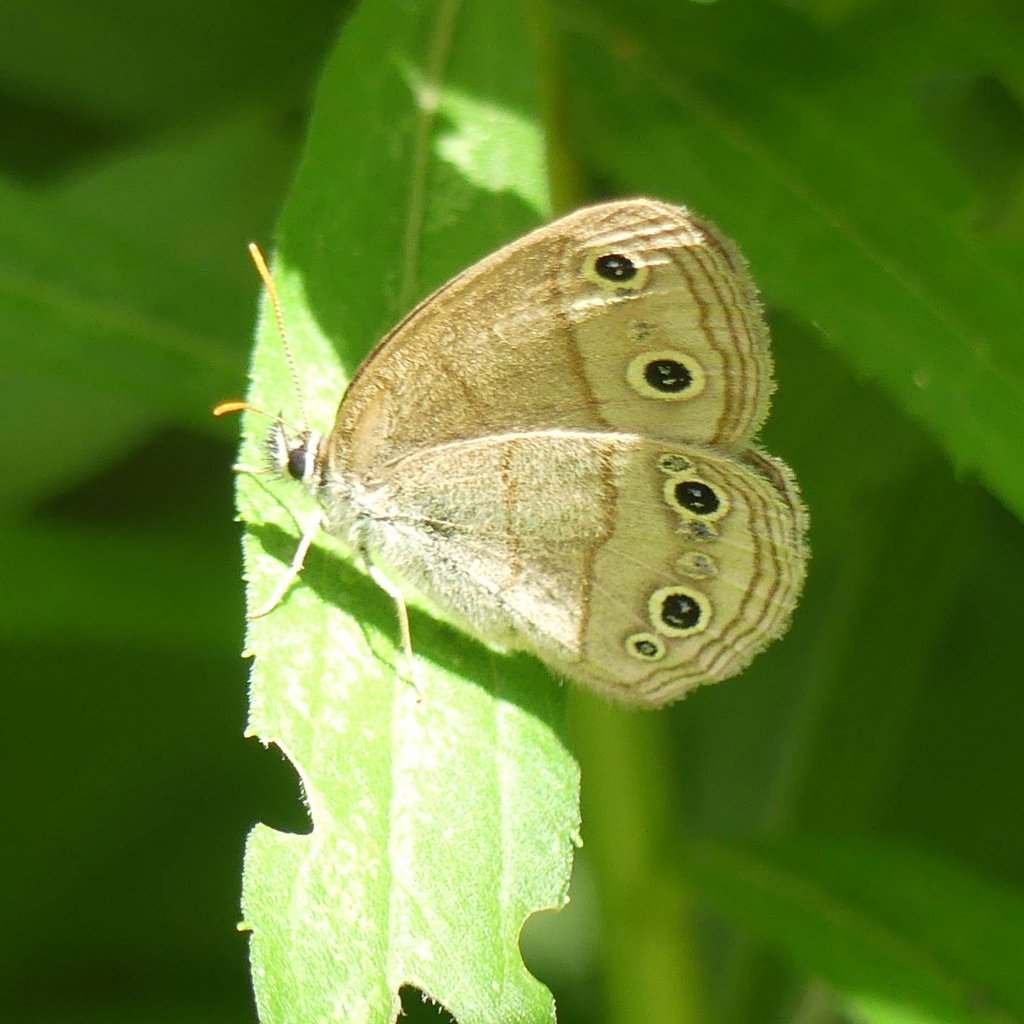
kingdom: Animalia
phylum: Arthropoda
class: Insecta
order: Lepidoptera
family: Nymphalidae
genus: Euptychia
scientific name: Euptychia cymela
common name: Little Wood Satyr
